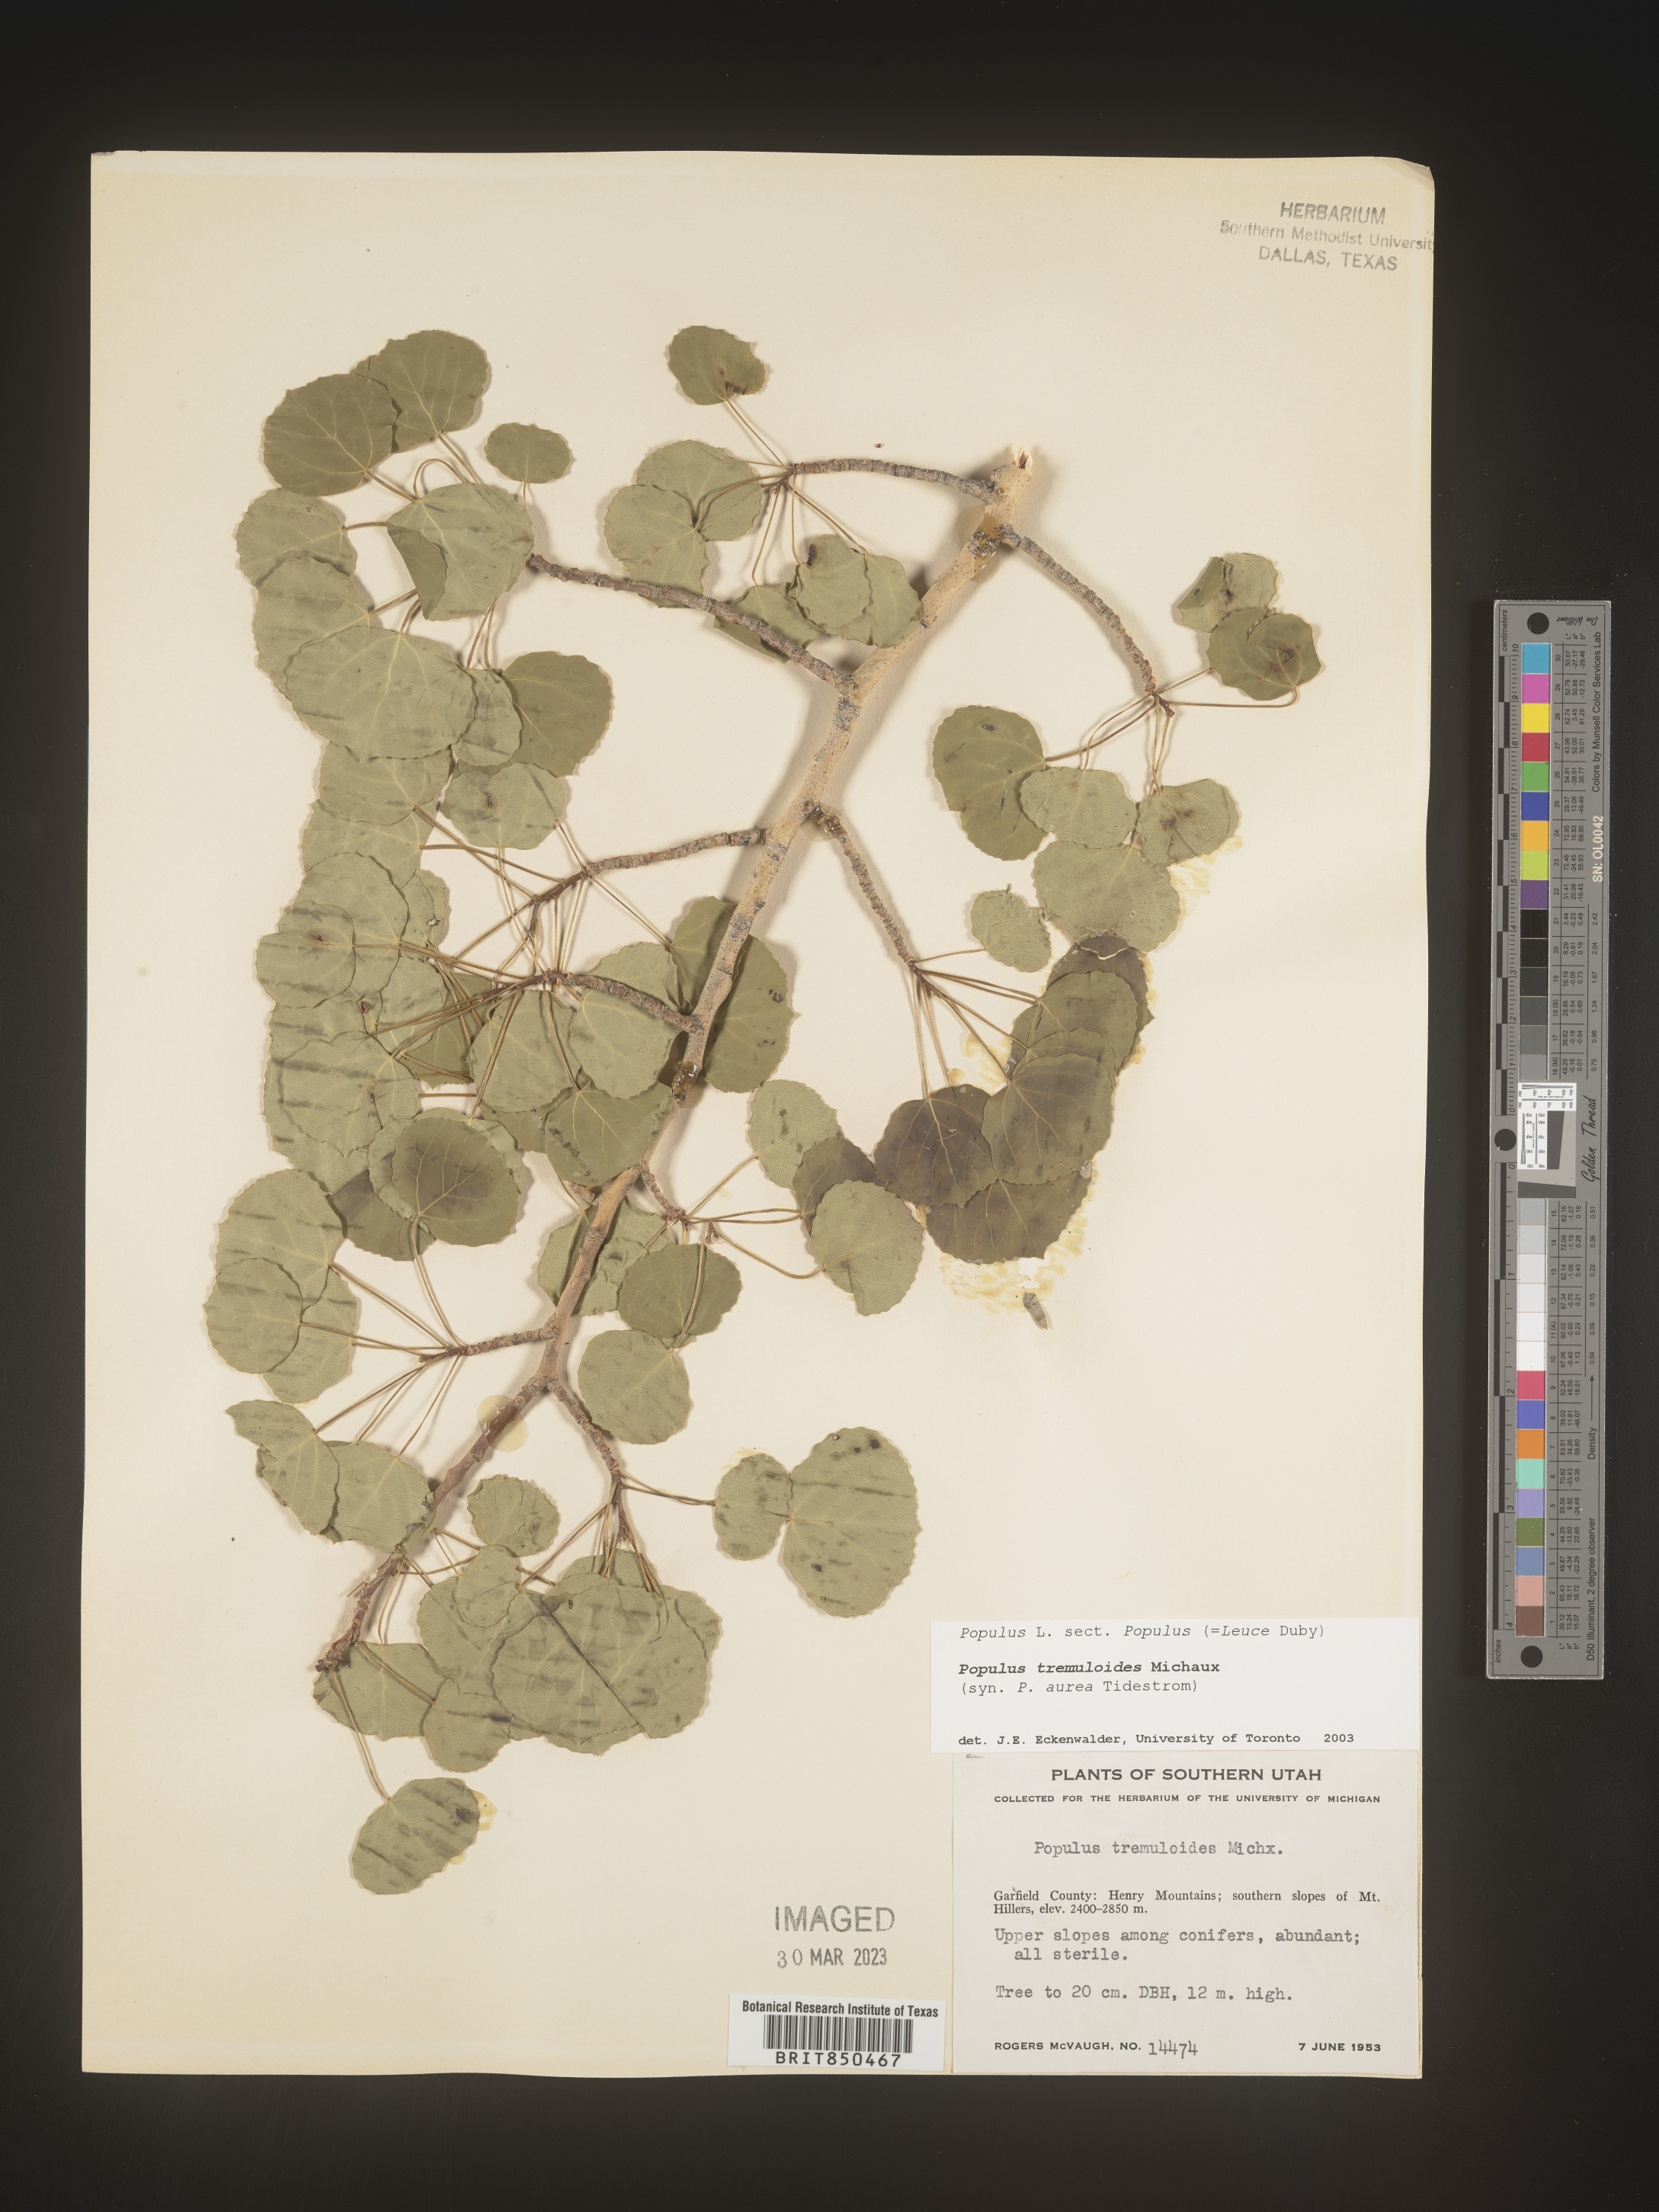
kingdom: Plantae
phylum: Tracheophyta
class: Magnoliopsida
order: Malpighiales
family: Salicaceae
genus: Populus
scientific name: Populus tremuloides
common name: Quaking aspen
